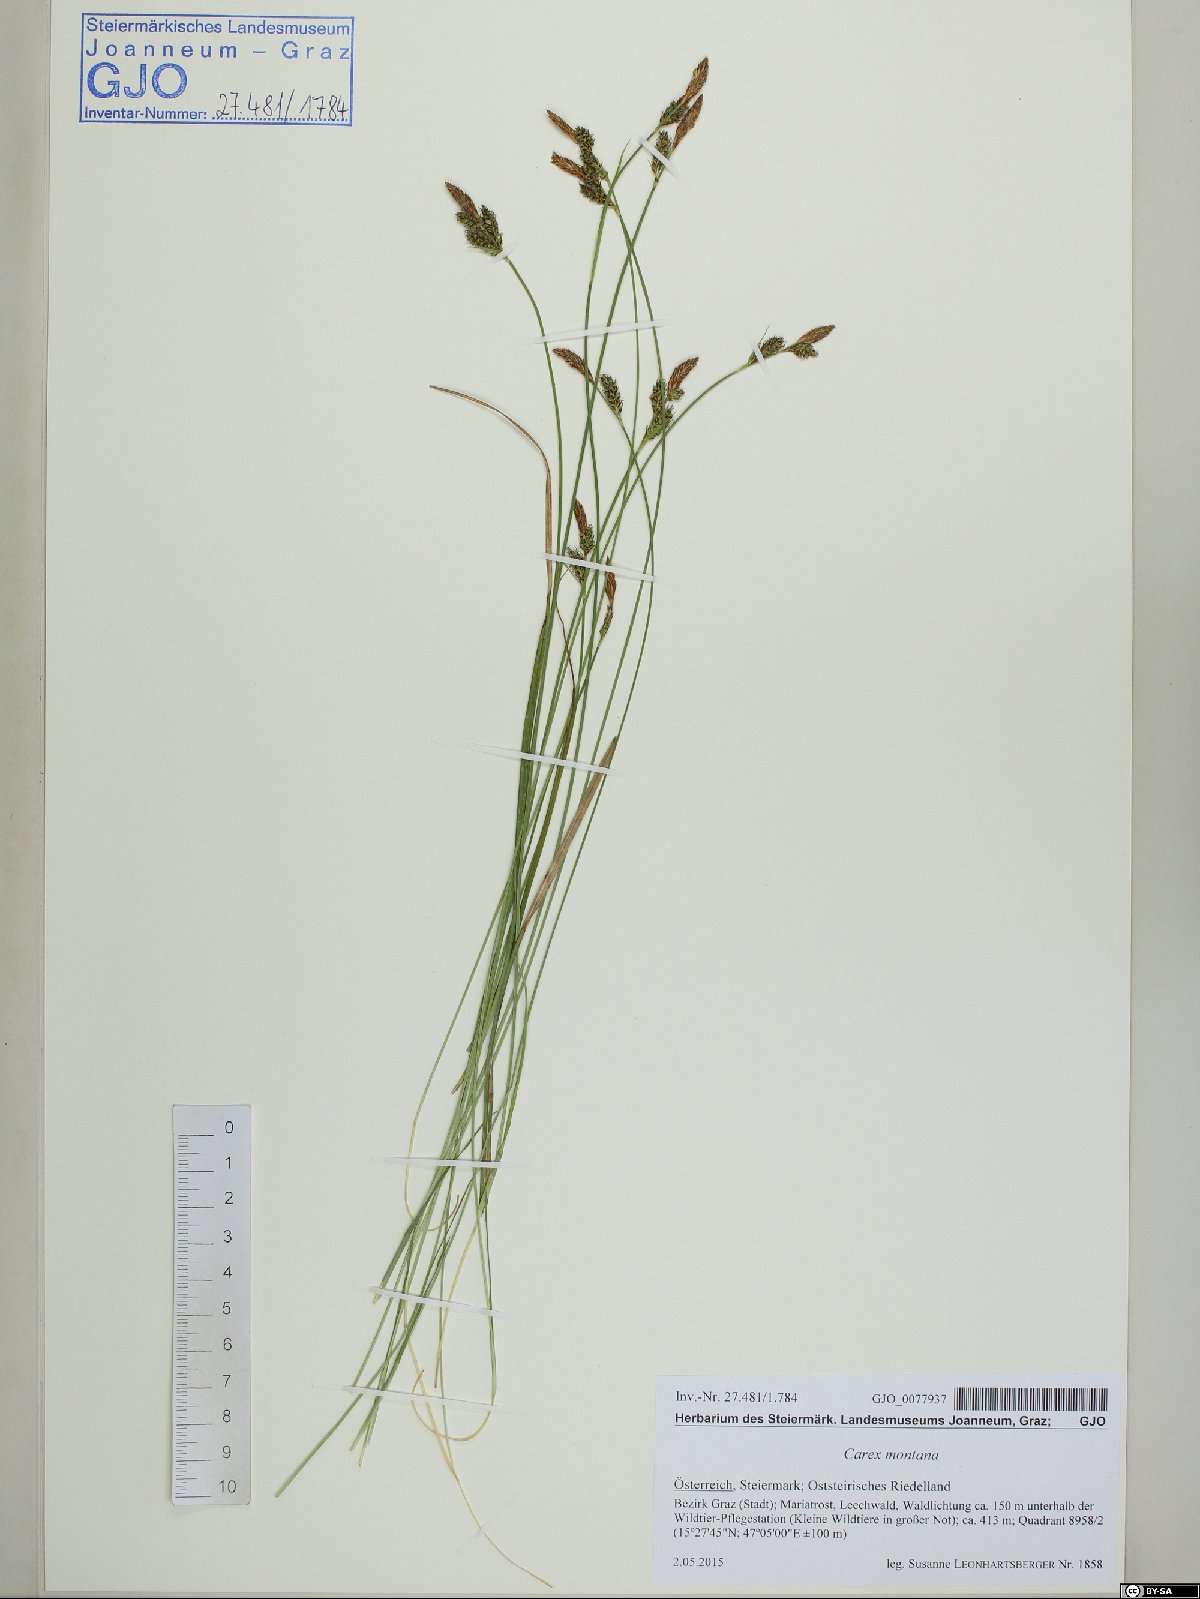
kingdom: Plantae
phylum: Tracheophyta
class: Liliopsida
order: Poales
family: Cyperaceae
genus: Carex
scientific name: Carex montana
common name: Soft-leaved sedge
